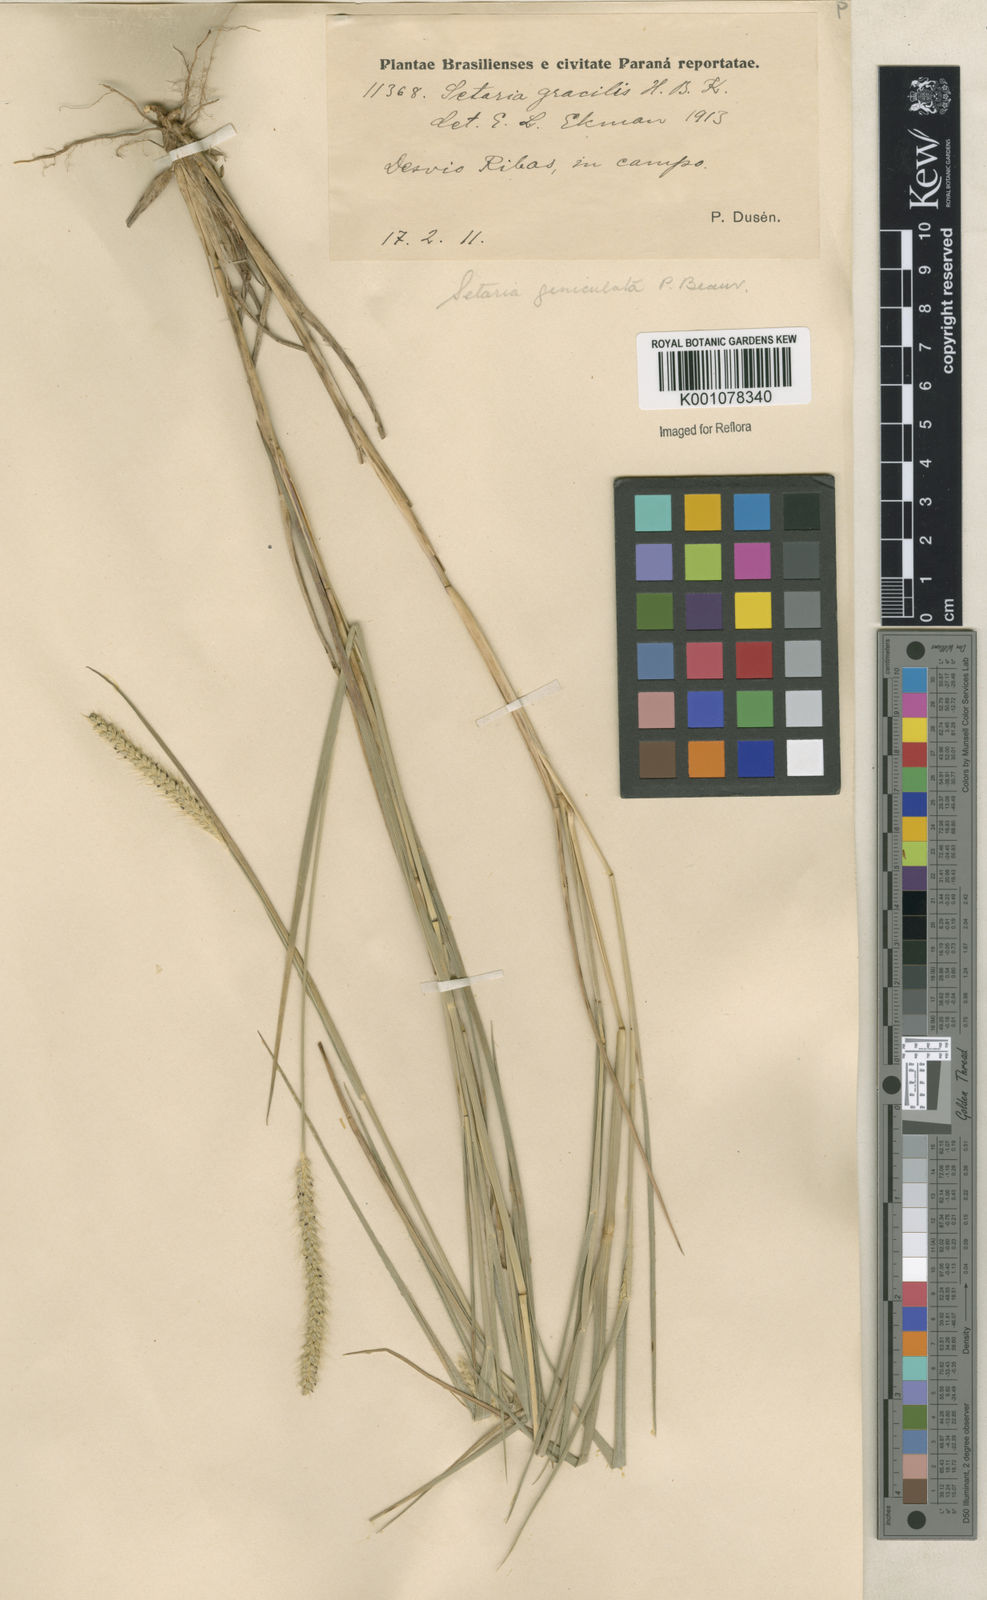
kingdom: Plantae
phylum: Tracheophyta
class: Liliopsida
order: Poales
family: Poaceae
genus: Setaria
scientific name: Setaria parviflora
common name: Knotroot bristle-grass
